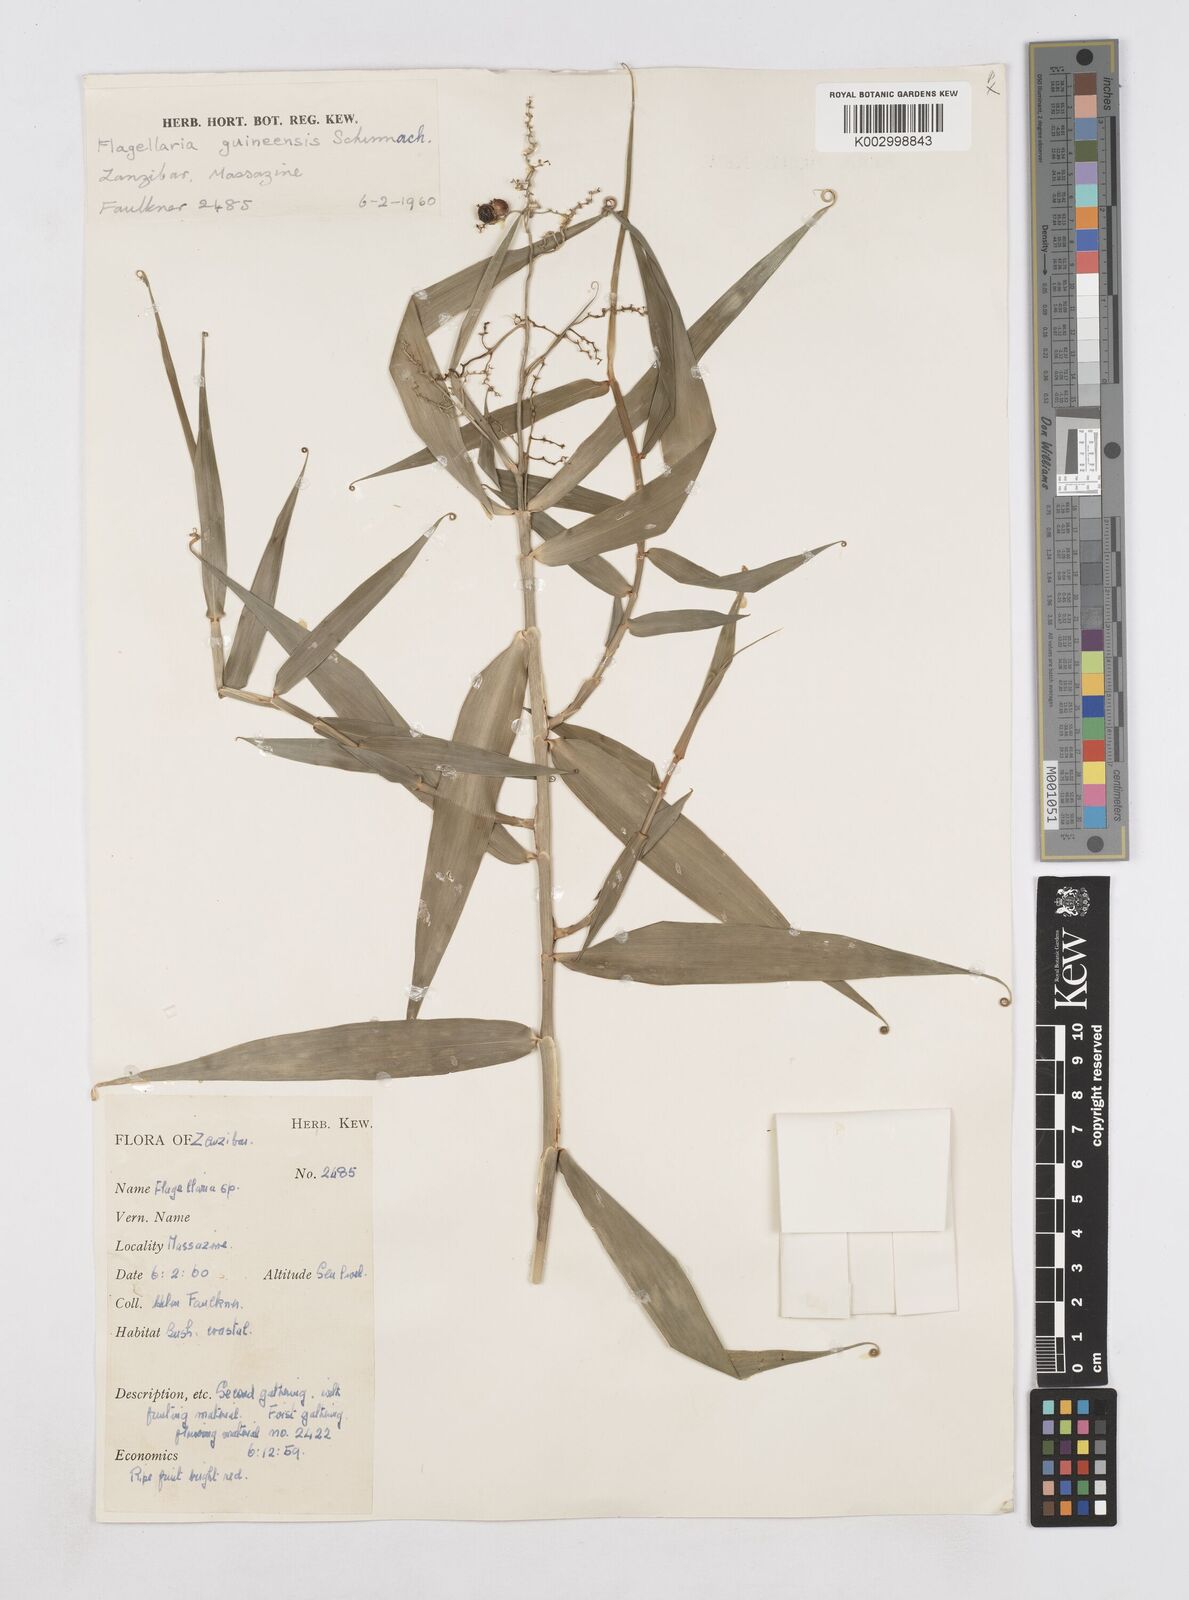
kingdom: Plantae
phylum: Tracheophyta
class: Liliopsida
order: Poales
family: Flagellariaceae
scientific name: Flagellariaceae
